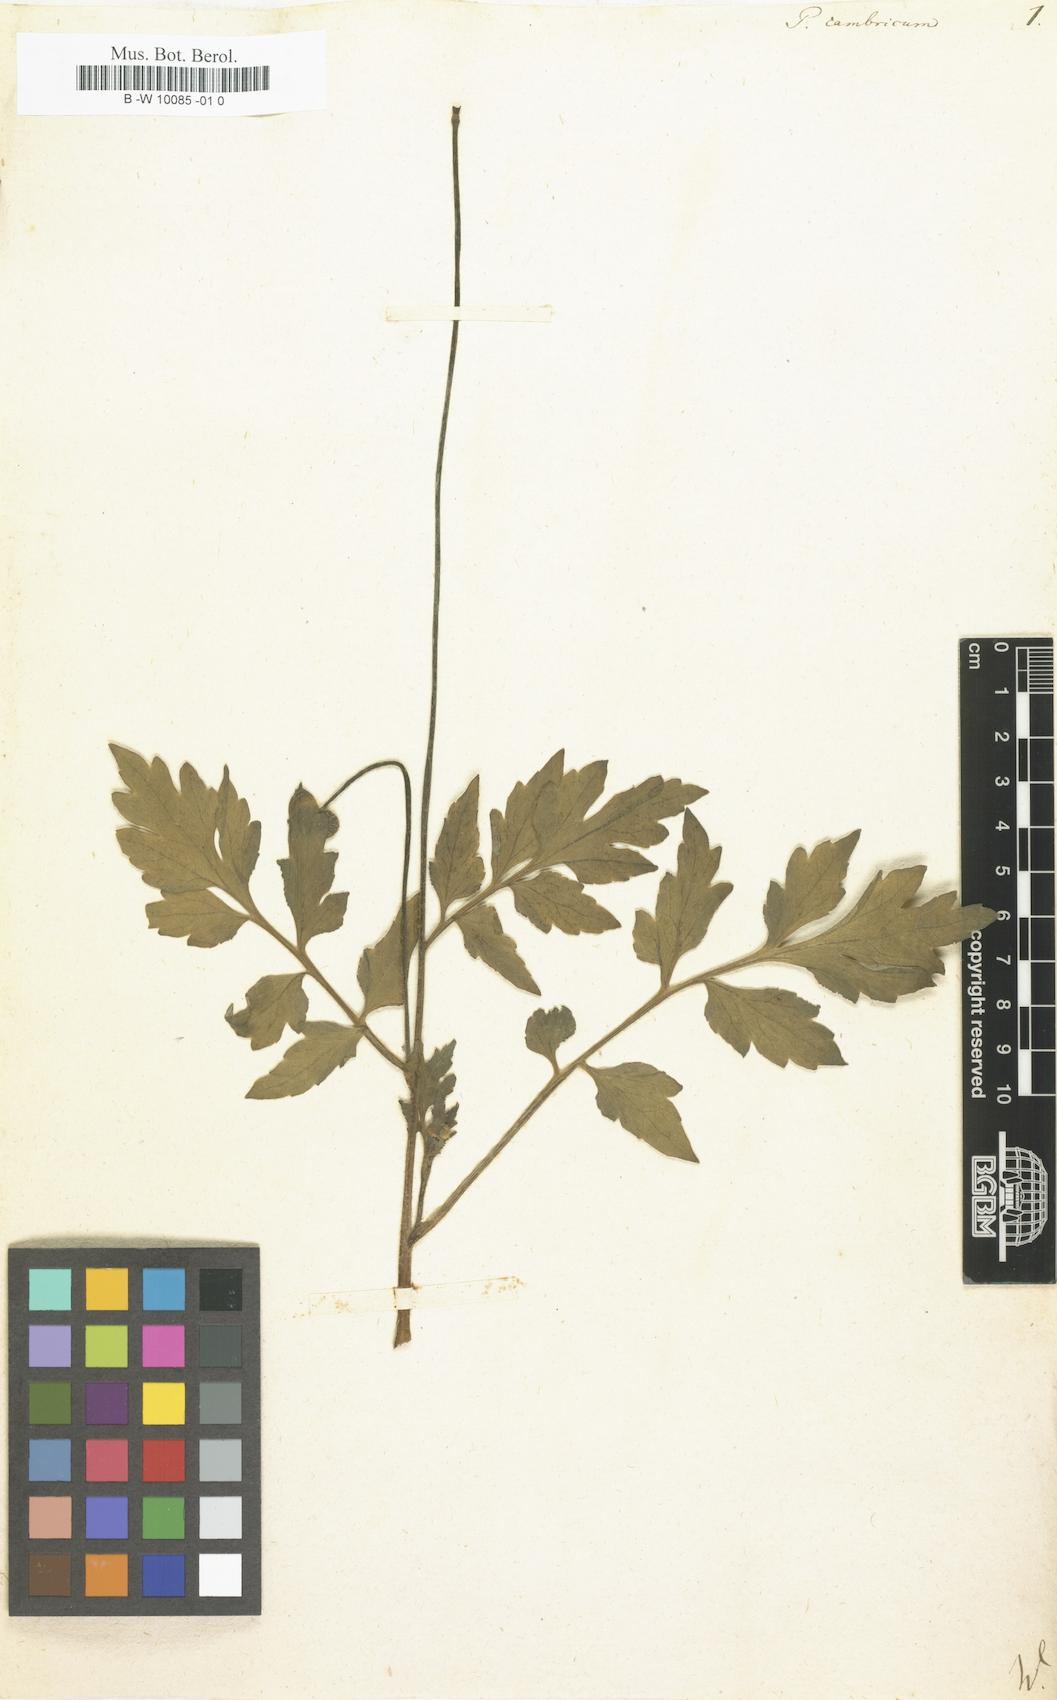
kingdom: Plantae
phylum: Tracheophyta
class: Magnoliopsida
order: Ranunculales
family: Papaveraceae
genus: Papaver
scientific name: Papaver cambricum
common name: Poppy
